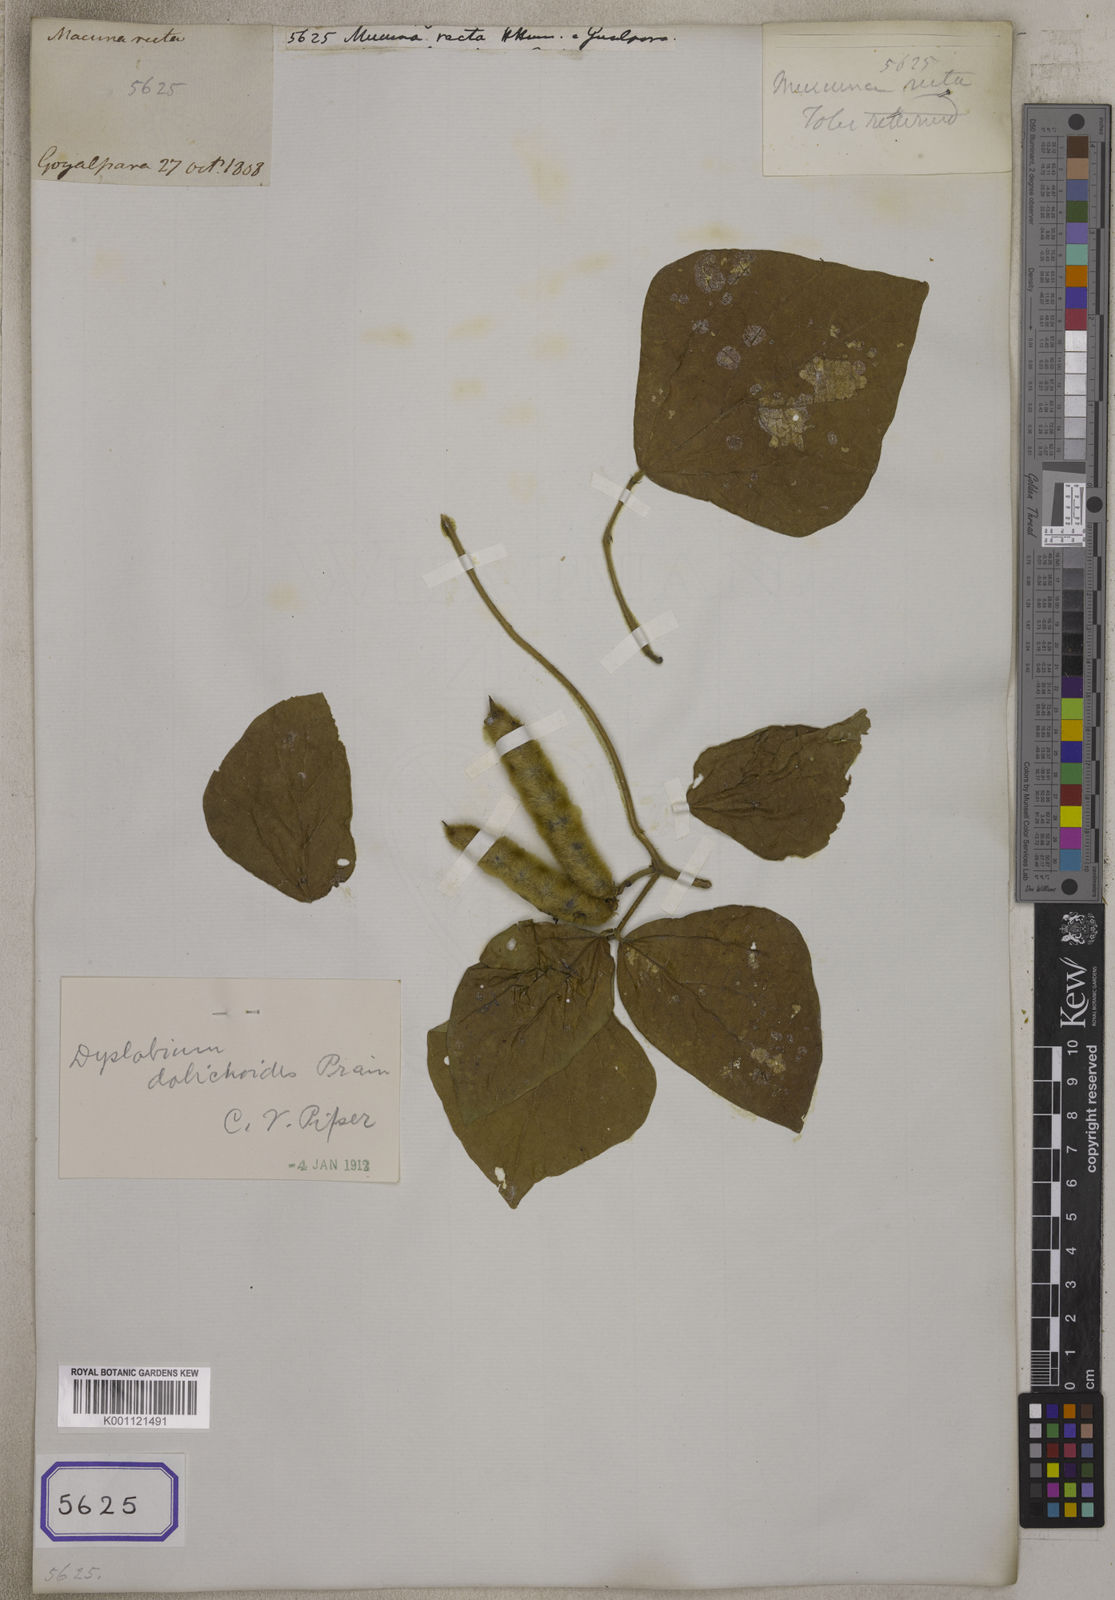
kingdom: Plantae
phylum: Tracheophyta
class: Magnoliopsida
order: Fabales
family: Fabaceae
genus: Dysolobium
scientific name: Dysolobium dolichoides
